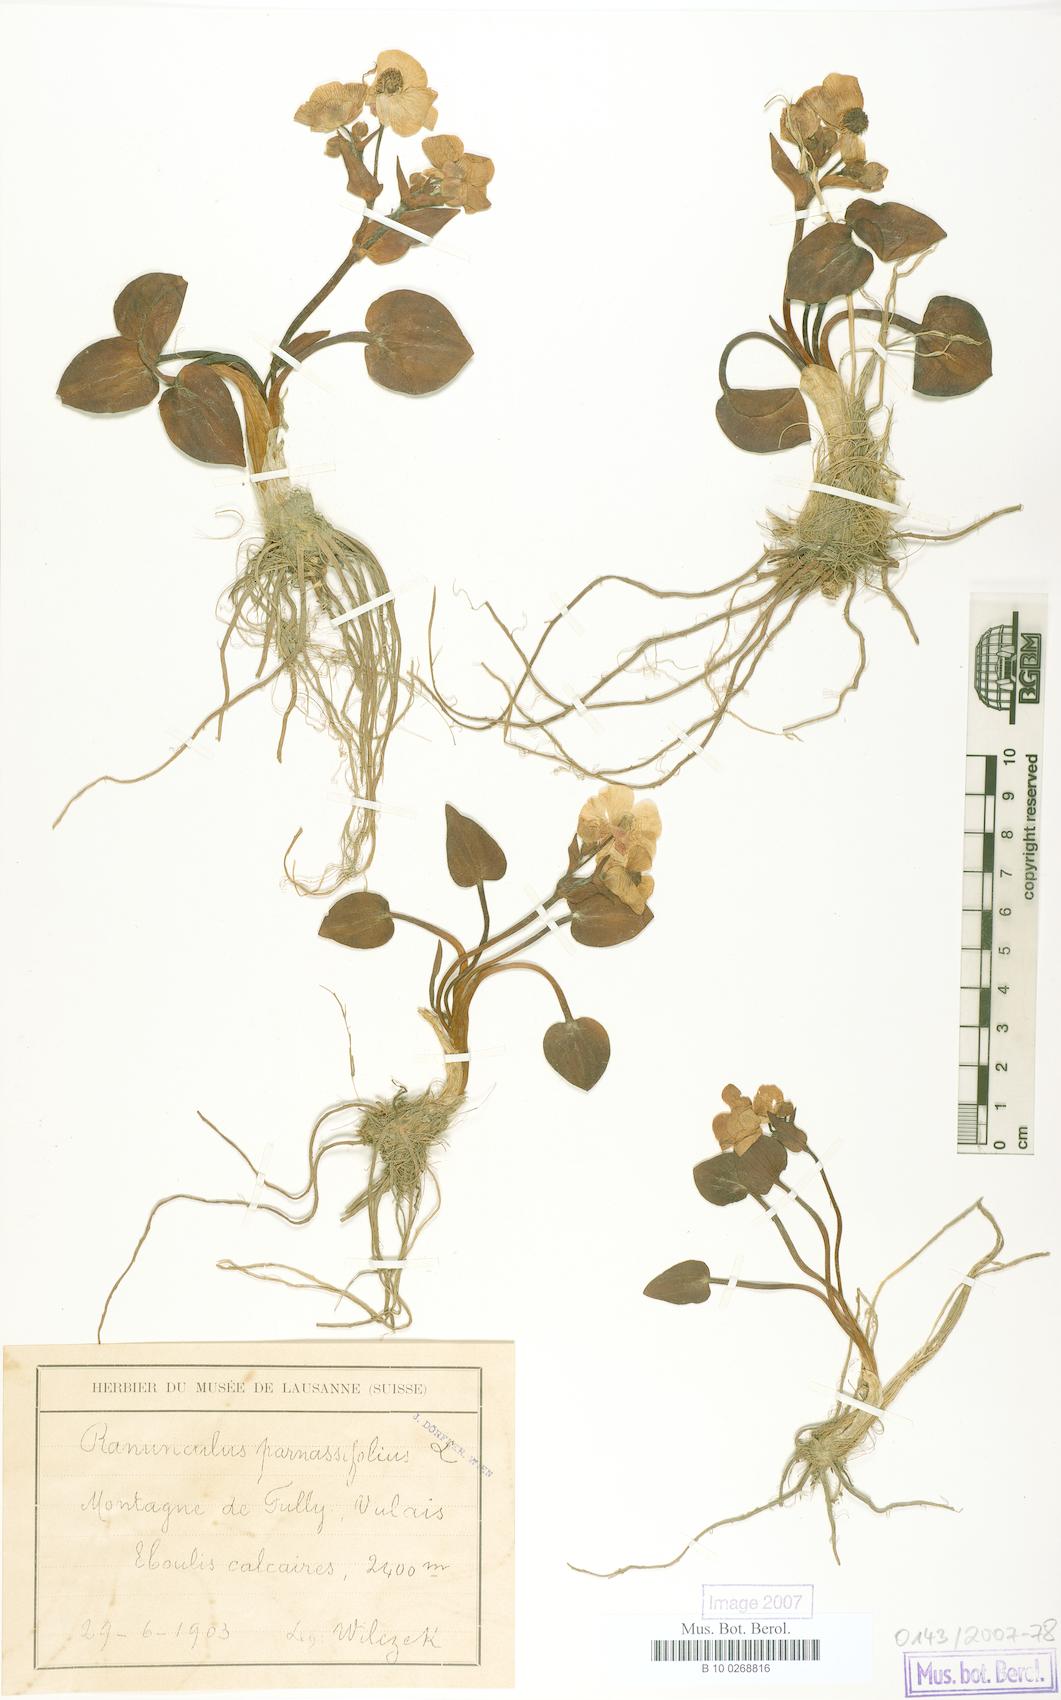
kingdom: Plantae
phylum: Tracheophyta
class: Magnoliopsida
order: Ranunculales
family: Ranunculaceae
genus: Ranunculus
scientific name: Ranunculus parnassiifolius
